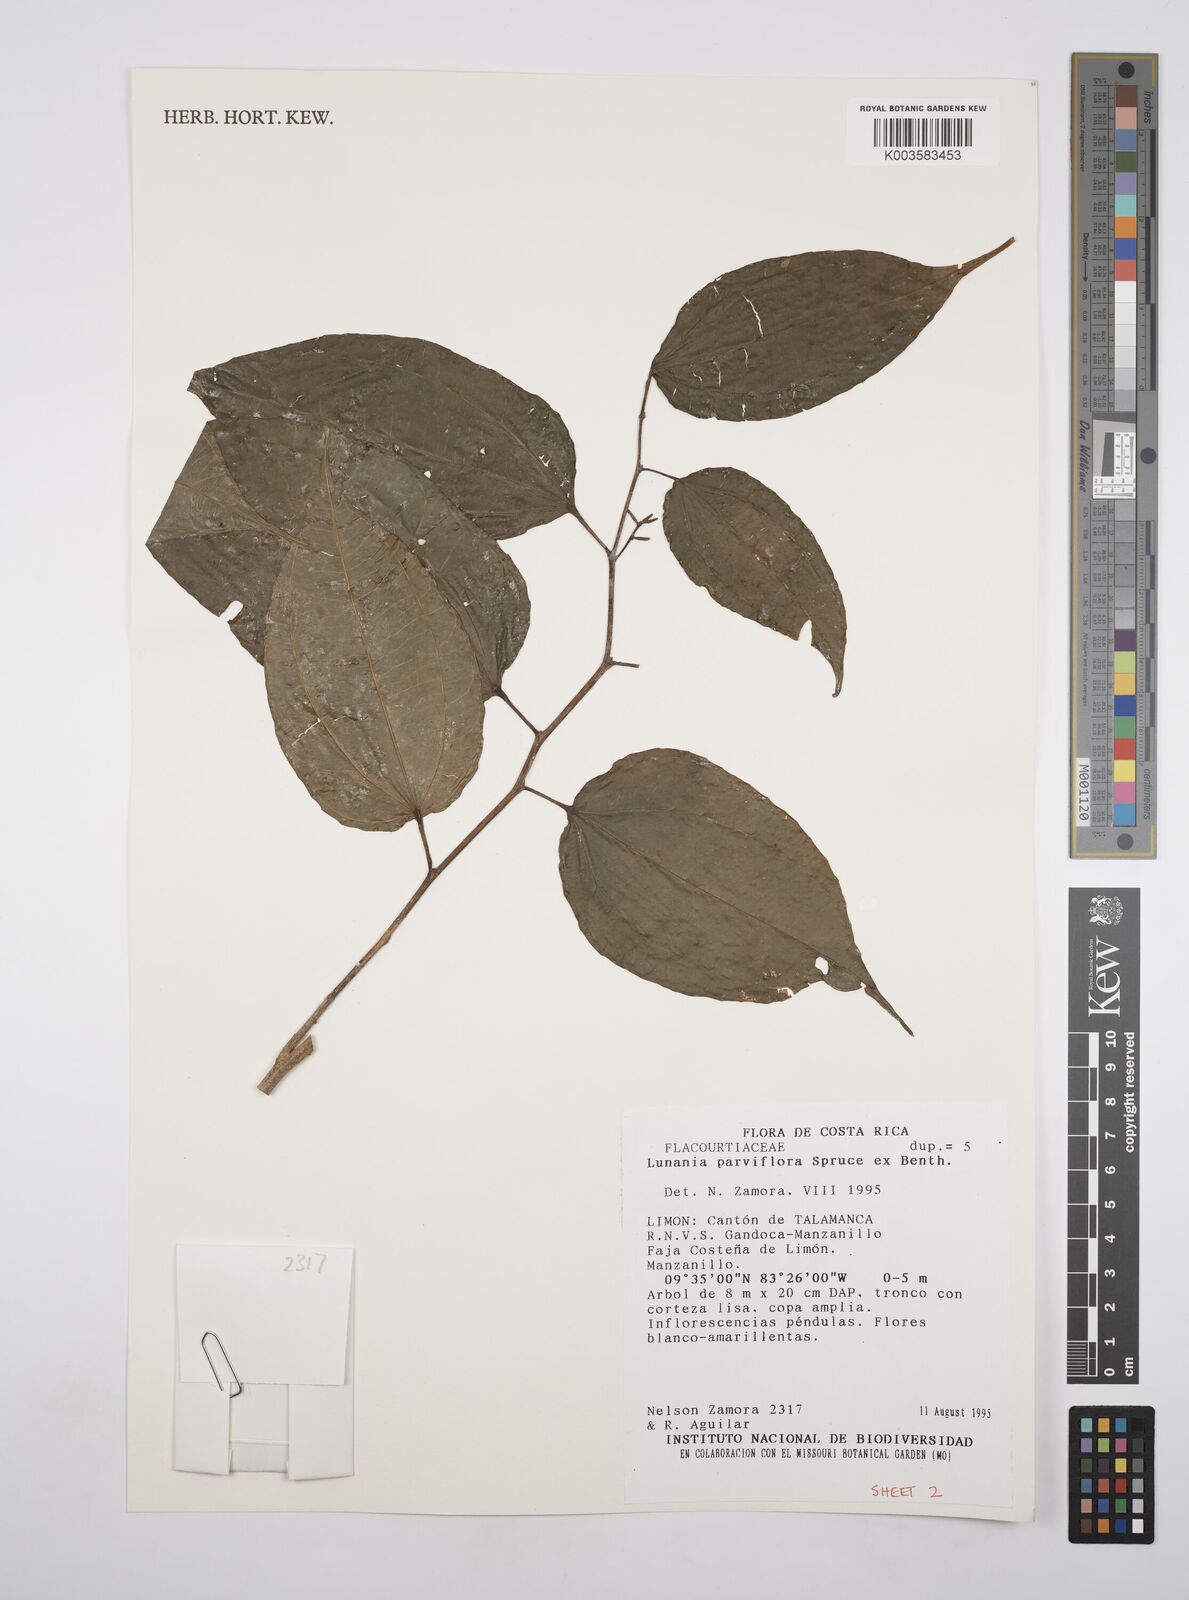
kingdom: Plantae
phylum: Tracheophyta
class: Magnoliopsida
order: Malpighiales
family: Salicaceae
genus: Lunania
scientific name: Lunania parviflora
